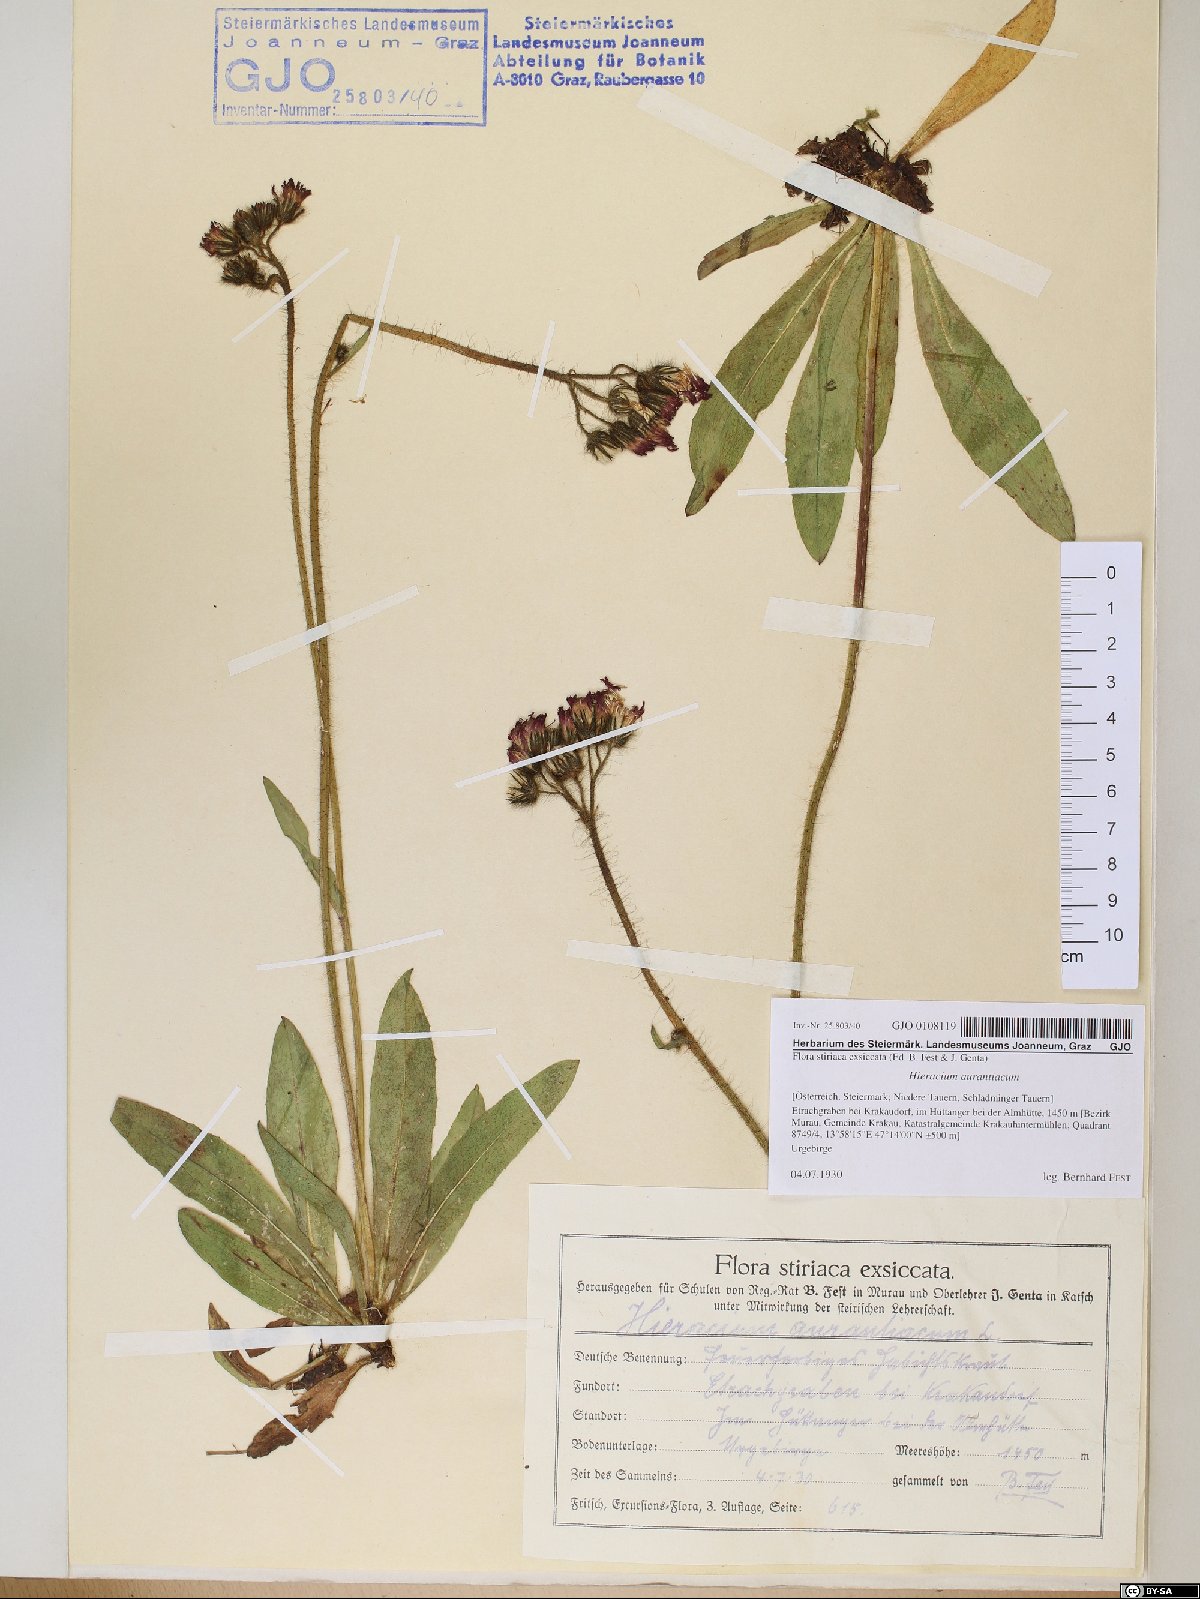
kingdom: Plantae
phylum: Tracheophyta
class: Magnoliopsida
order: Asterales
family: Asteraceae
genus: Pilosella
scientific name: Pilosella aurantiaca
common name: Fox-and-cubs
